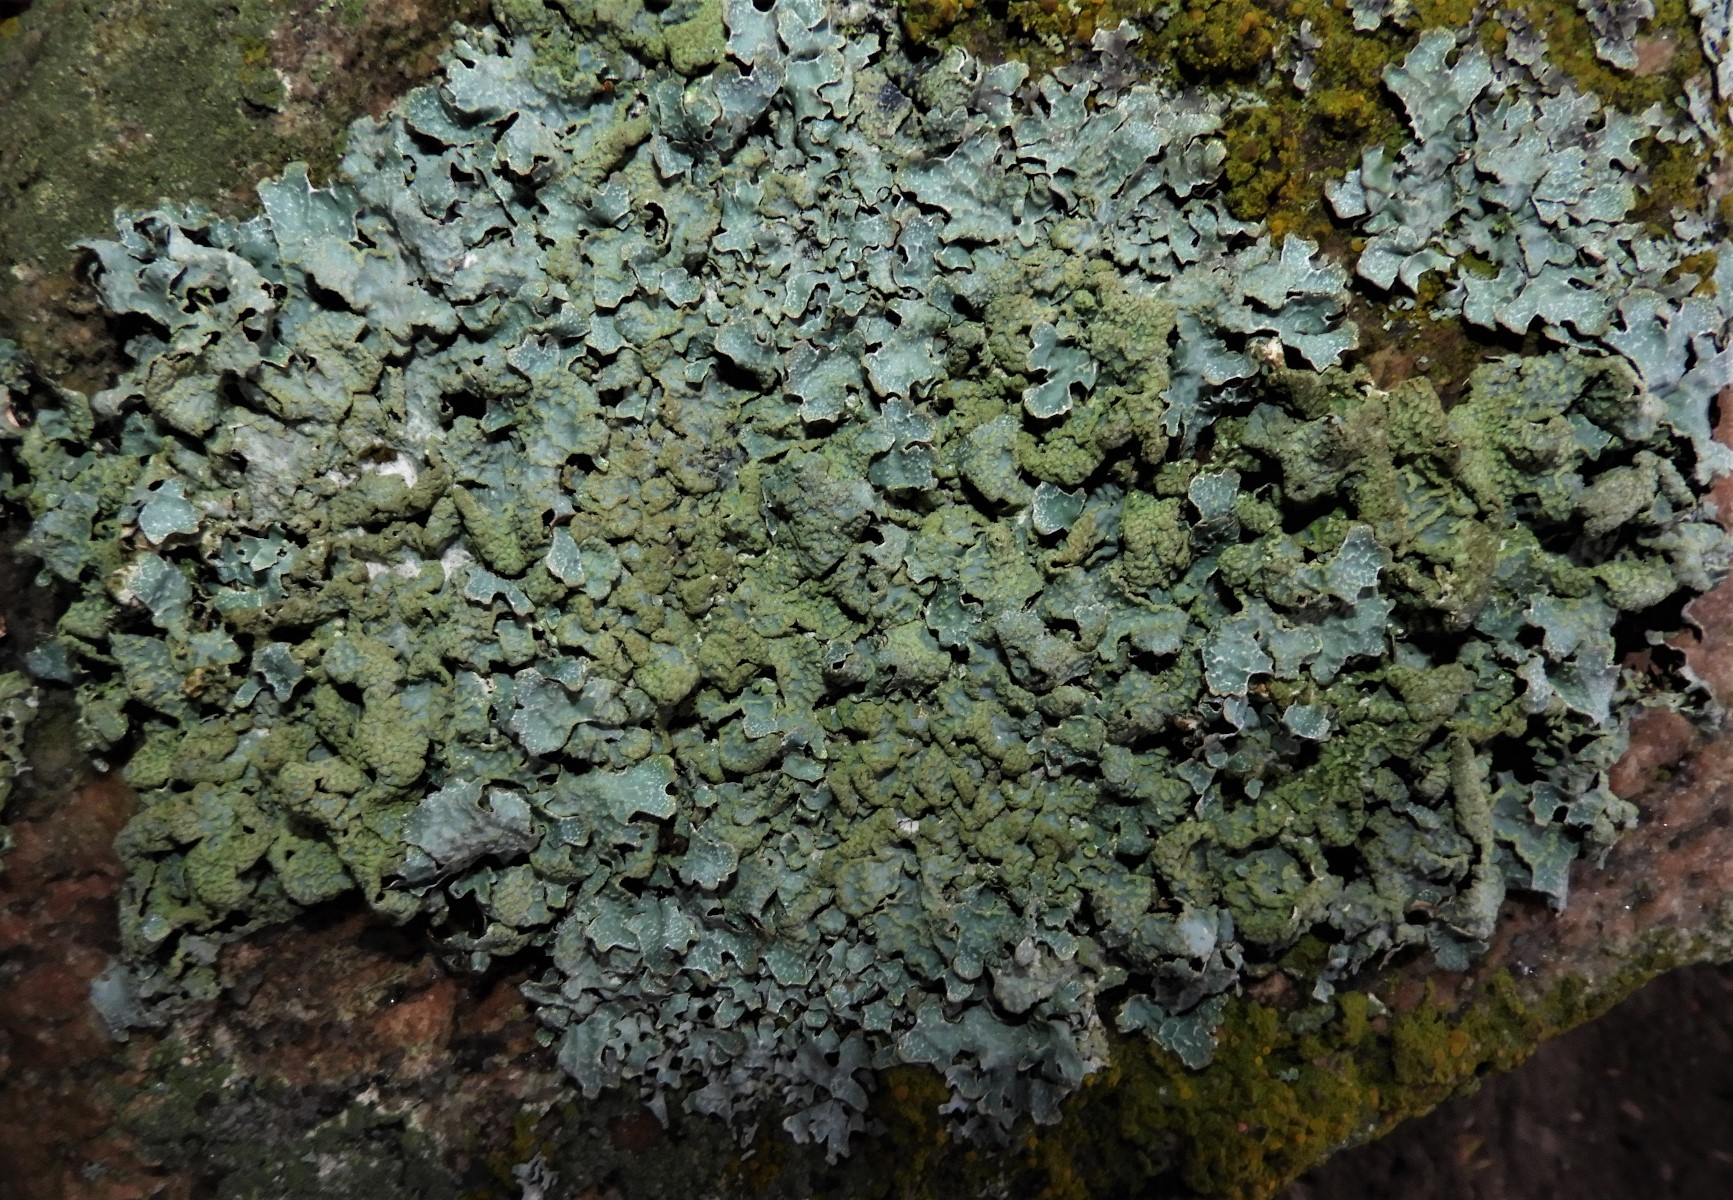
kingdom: Fungi
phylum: Ascomycota
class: Lecanoromycetes
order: Lecanorales
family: Parmeliaceae
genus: Parmelia
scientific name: Parmelia sulcata
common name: rynket skållav
